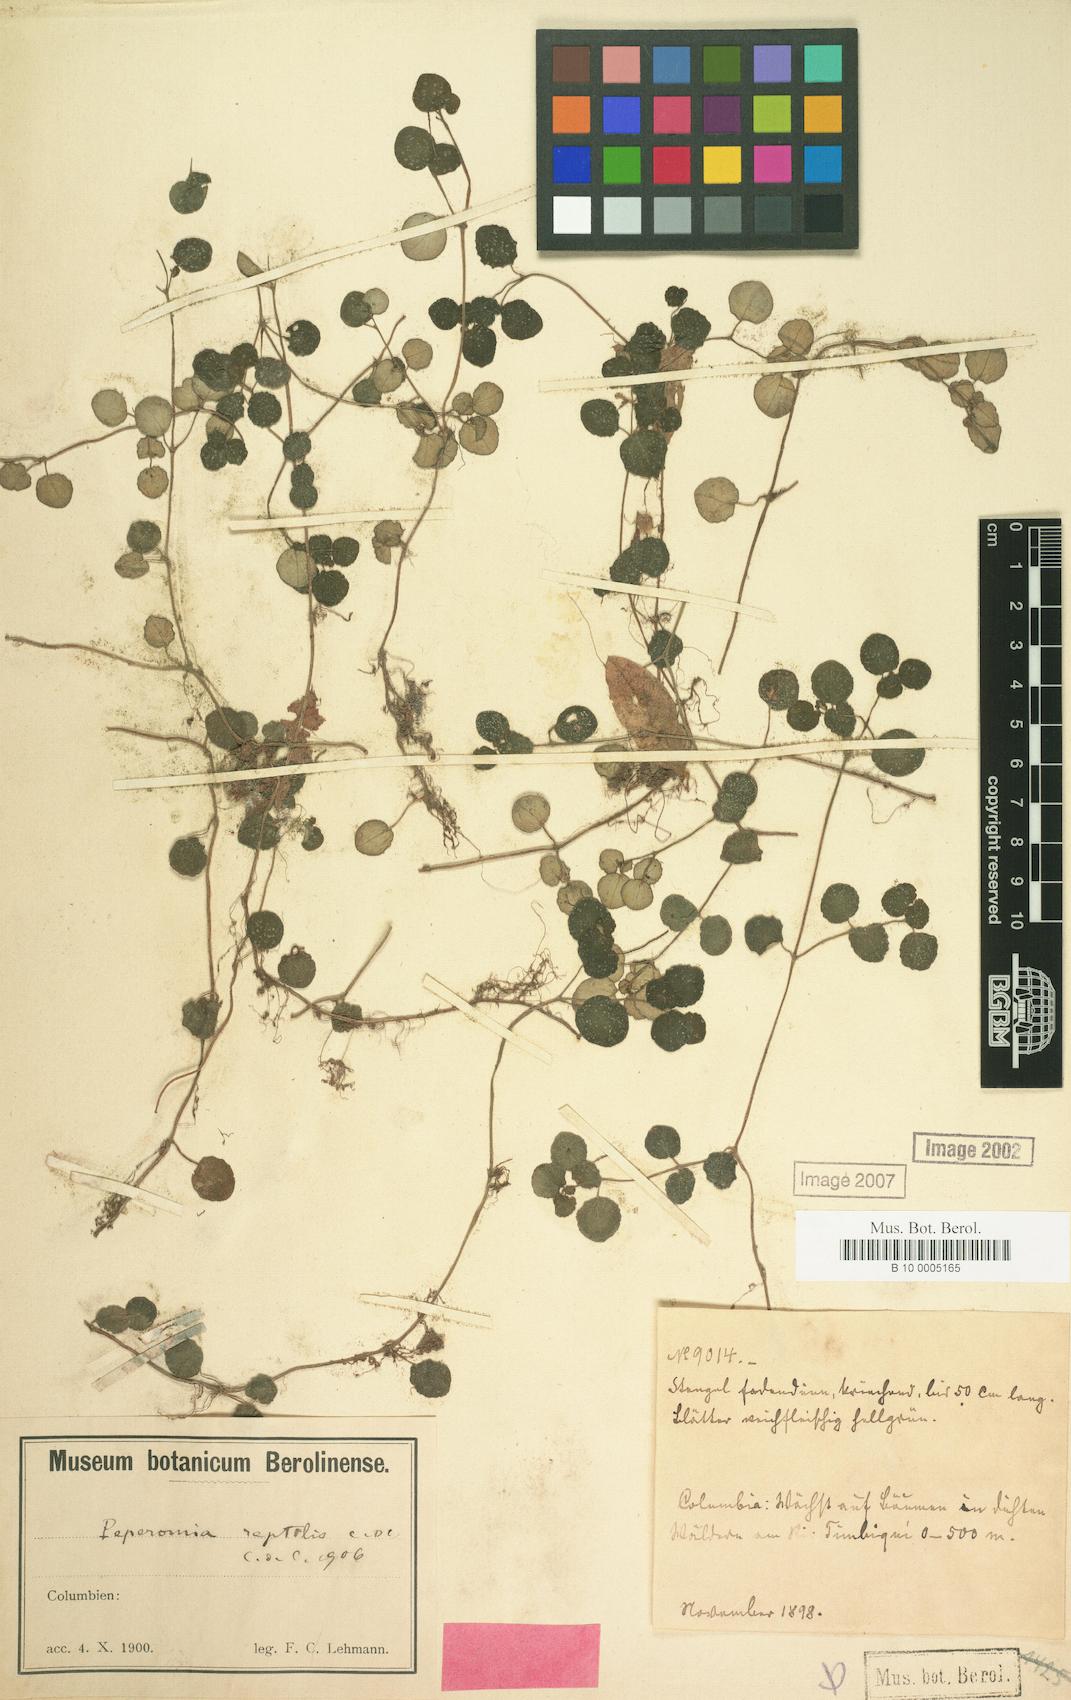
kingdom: Plantae
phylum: Tracheophyta
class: Magnoliopsida
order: Piperales
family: Piperaceae
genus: Peperomia
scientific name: Peperomia reptilis
